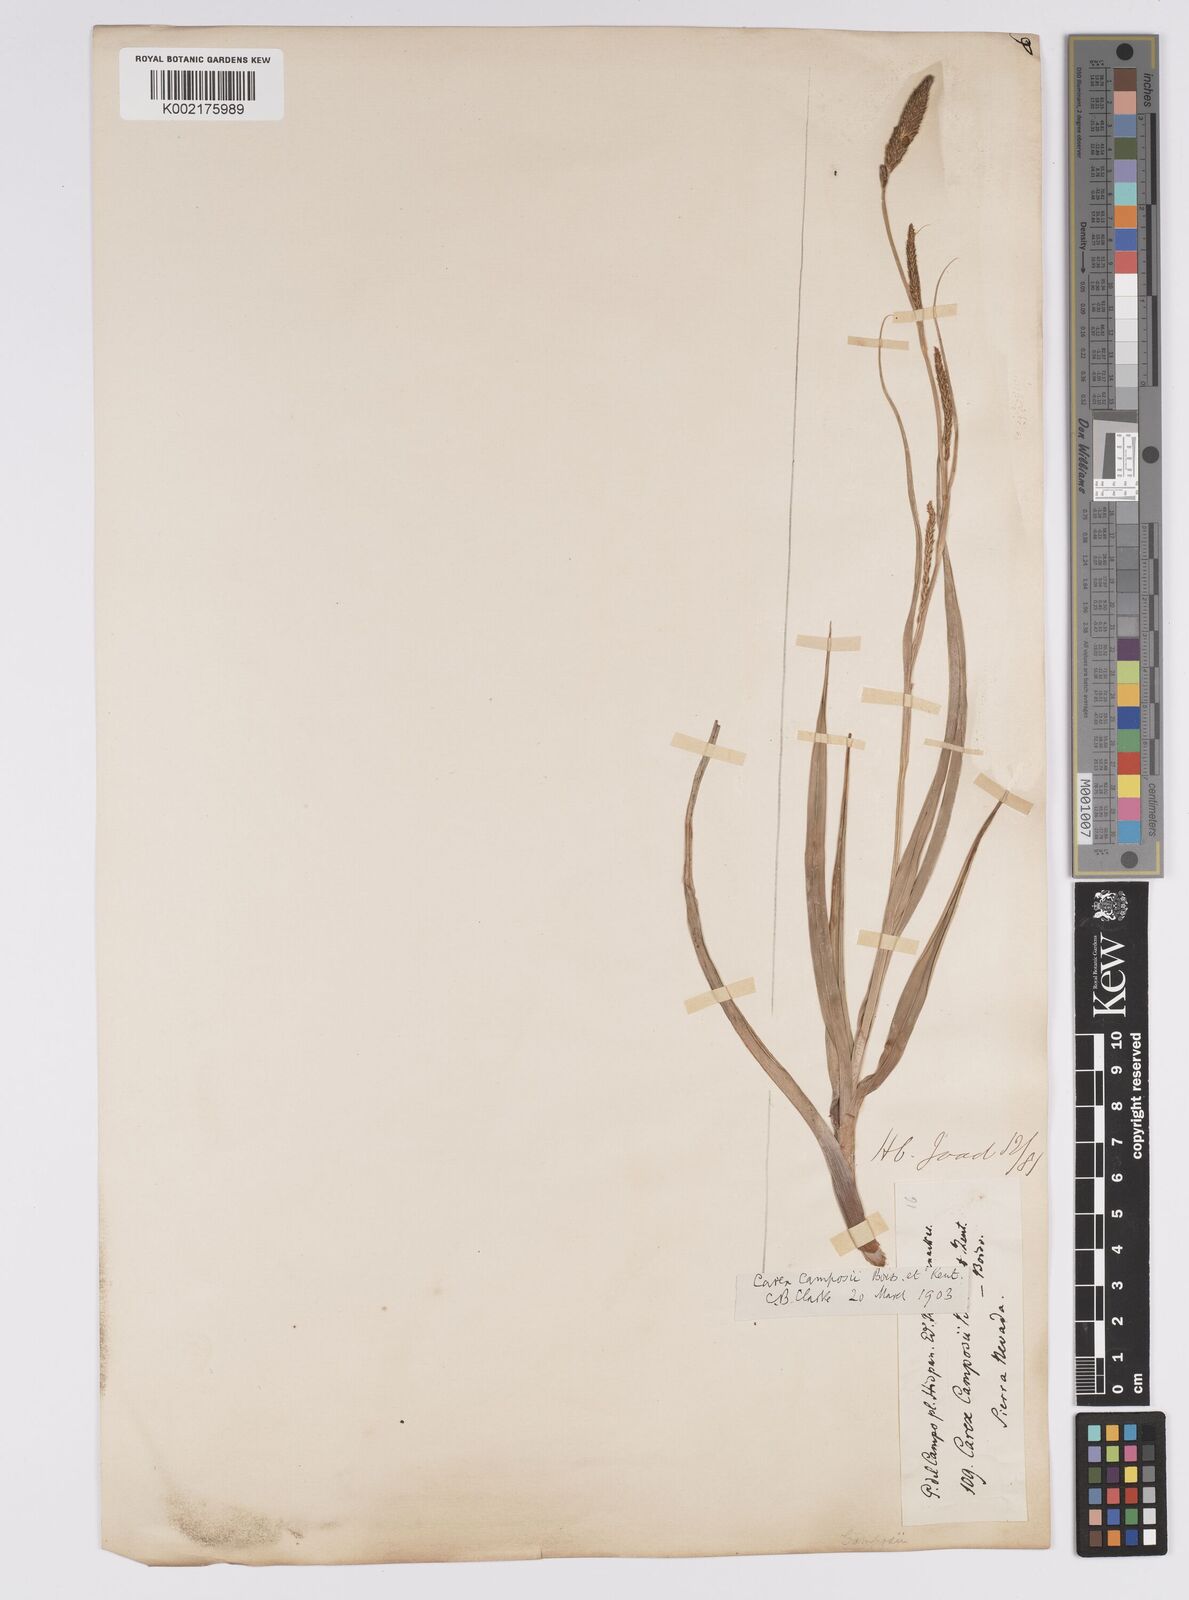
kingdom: Plantae
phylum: Tracheophyta
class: Liliopsida
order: Poales
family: Cyperaceae
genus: Carex
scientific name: Carex camposii
